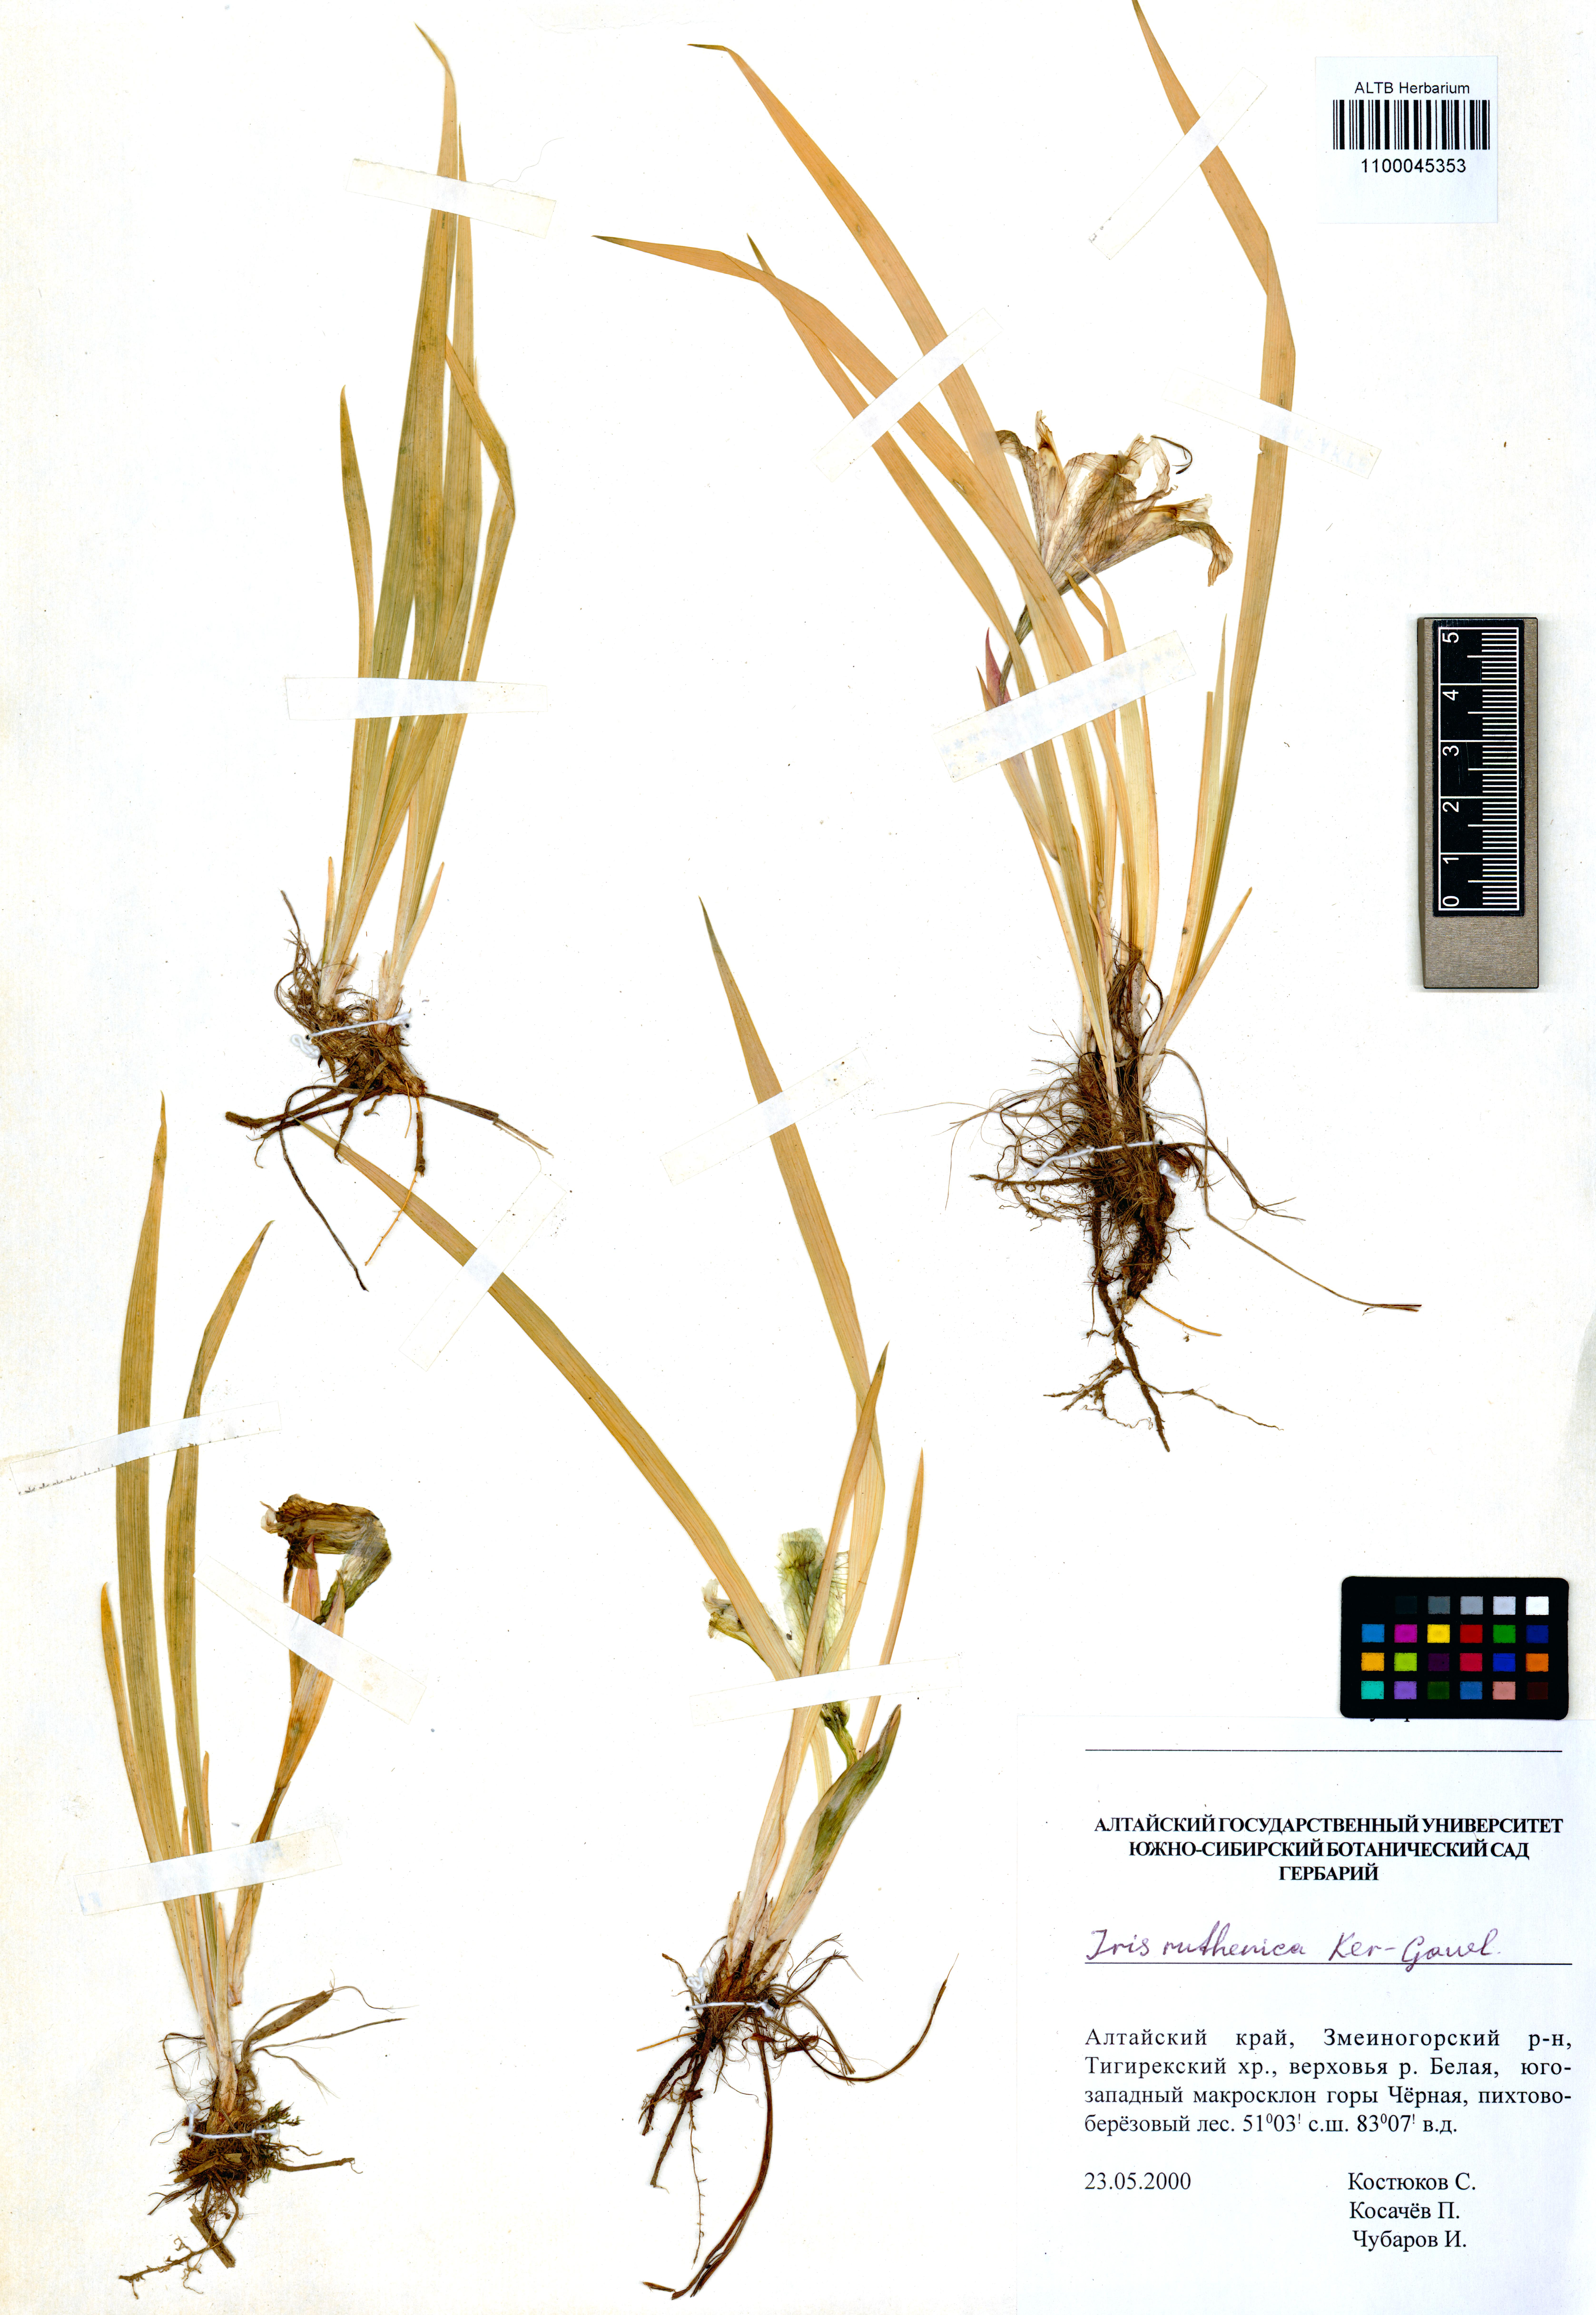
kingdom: Plantae
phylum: Tracheophyta
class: Liliopsida
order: Asparagales
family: Iridaceae
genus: Iris
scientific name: Iris ruthenica
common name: Purple-bract iris
